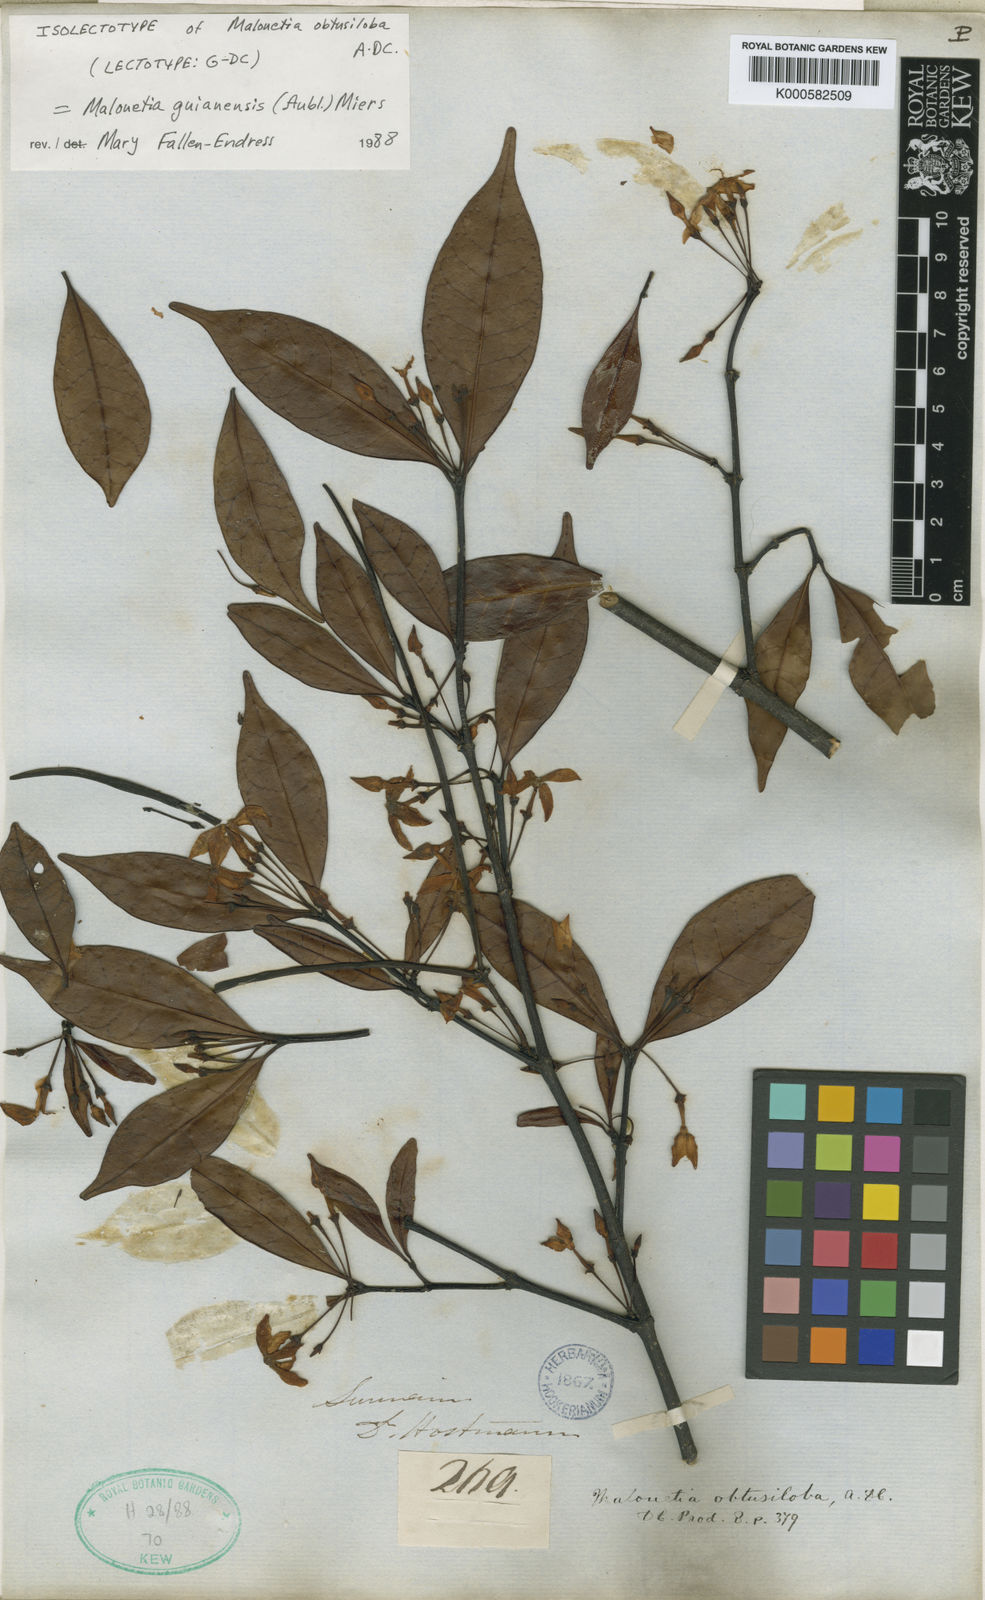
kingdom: Plantae
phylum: Tracheophyta
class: Magnoliopsida
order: Gentianales
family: Apocynaceae
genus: Malouetia
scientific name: Malouetia tamaquarina
